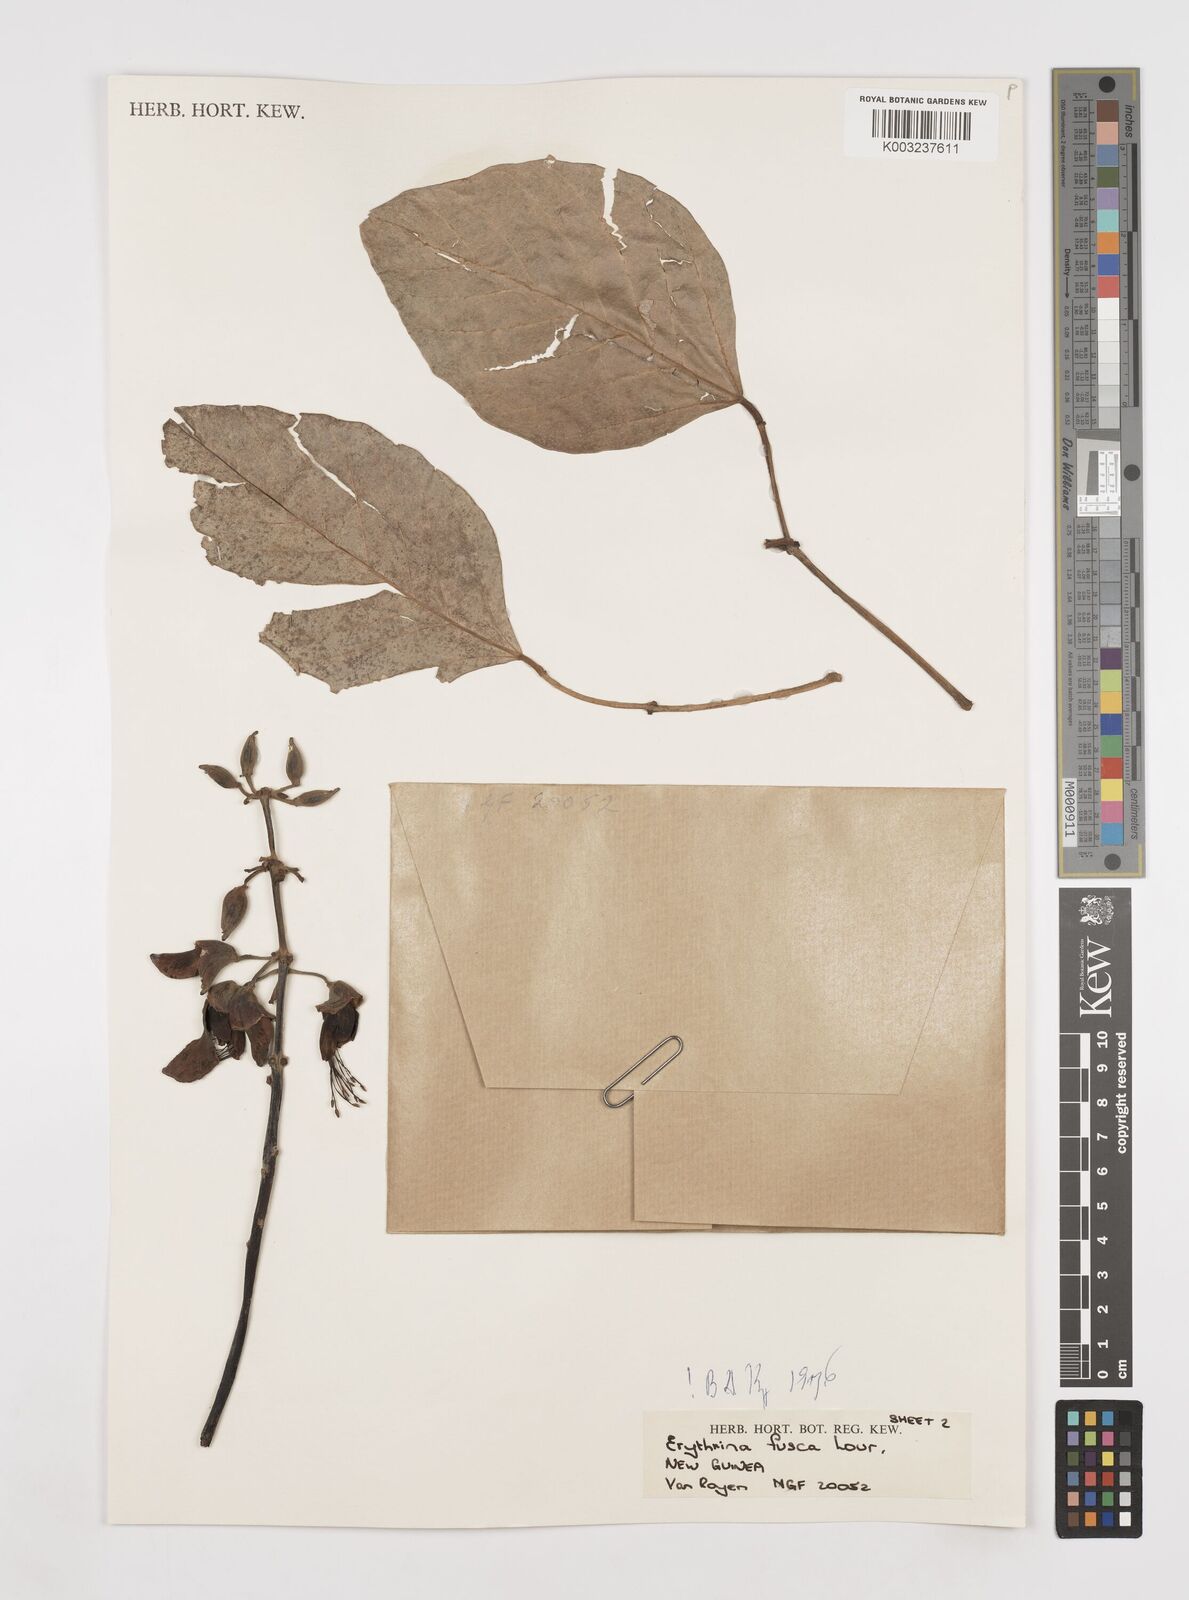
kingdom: Plantae
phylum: Tracheophyta
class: Magnoliopsida
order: Fabales
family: Fabaceae
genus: Erythrina
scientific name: Erythrina fusca
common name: Coral-bean
